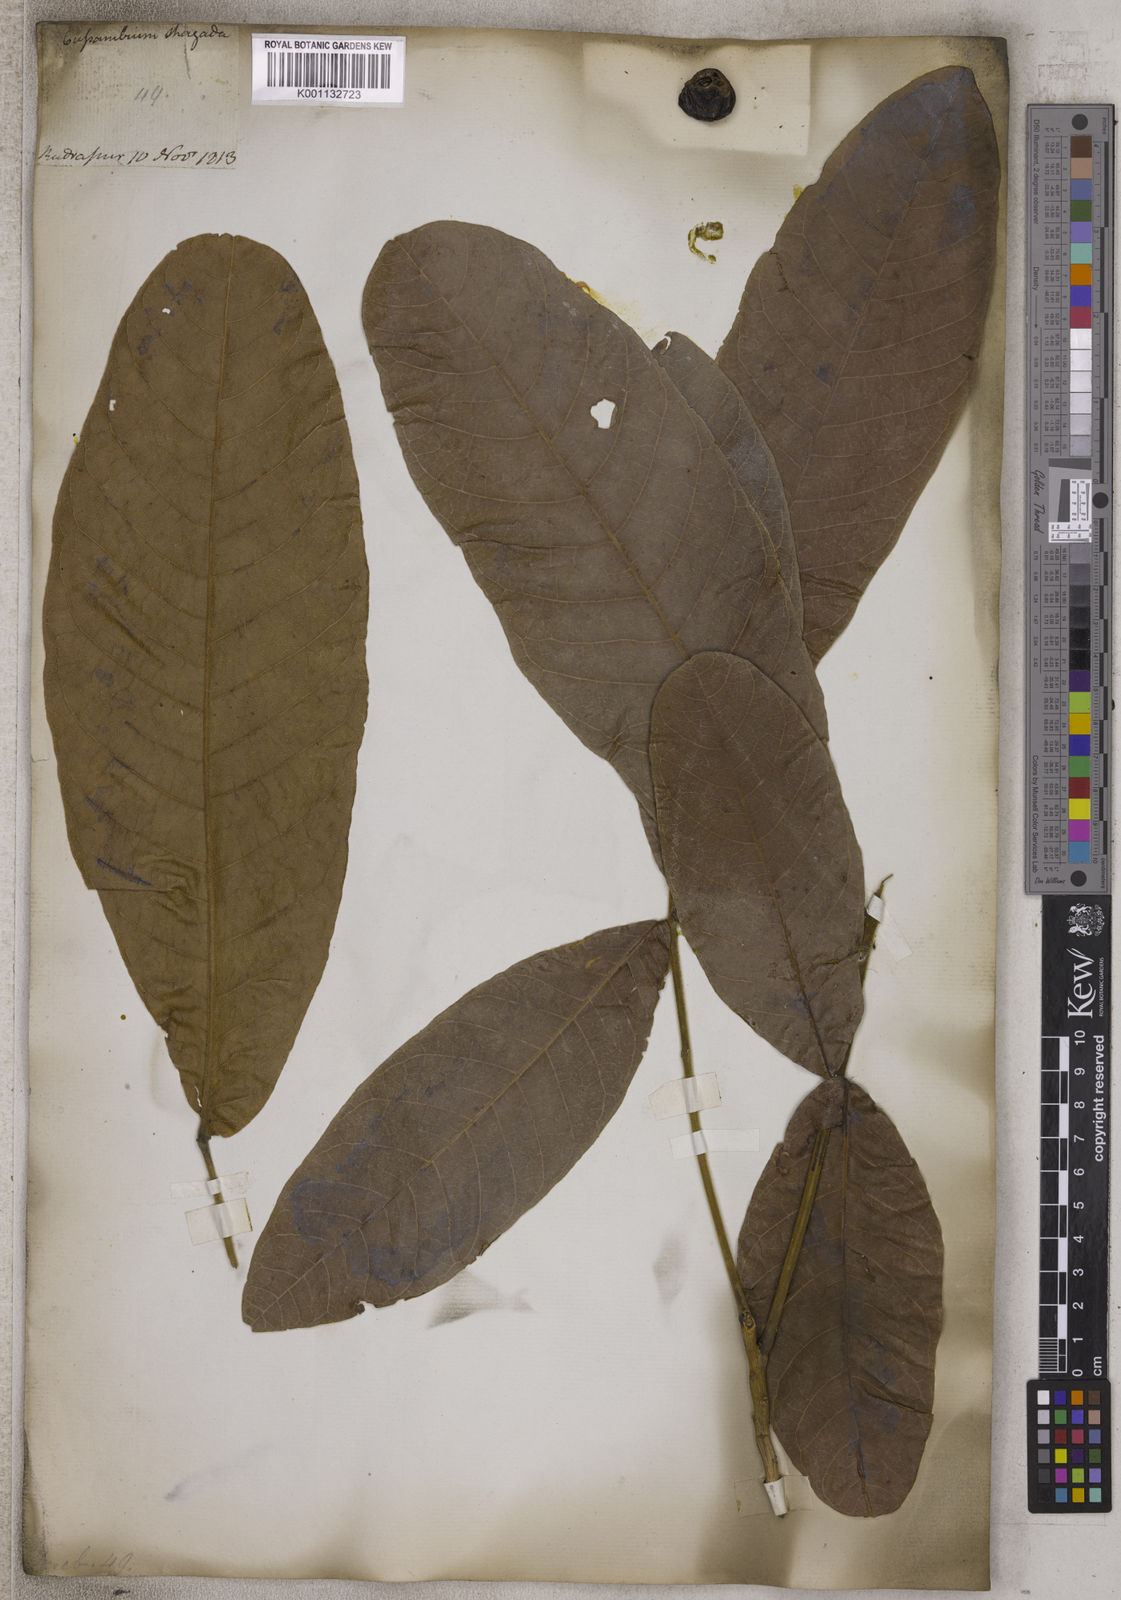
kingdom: Plantae
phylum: Tracheophyta
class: Magnoliopsida
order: Sapindales
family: Sapindaceae
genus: Cussambium
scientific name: Cussambium
